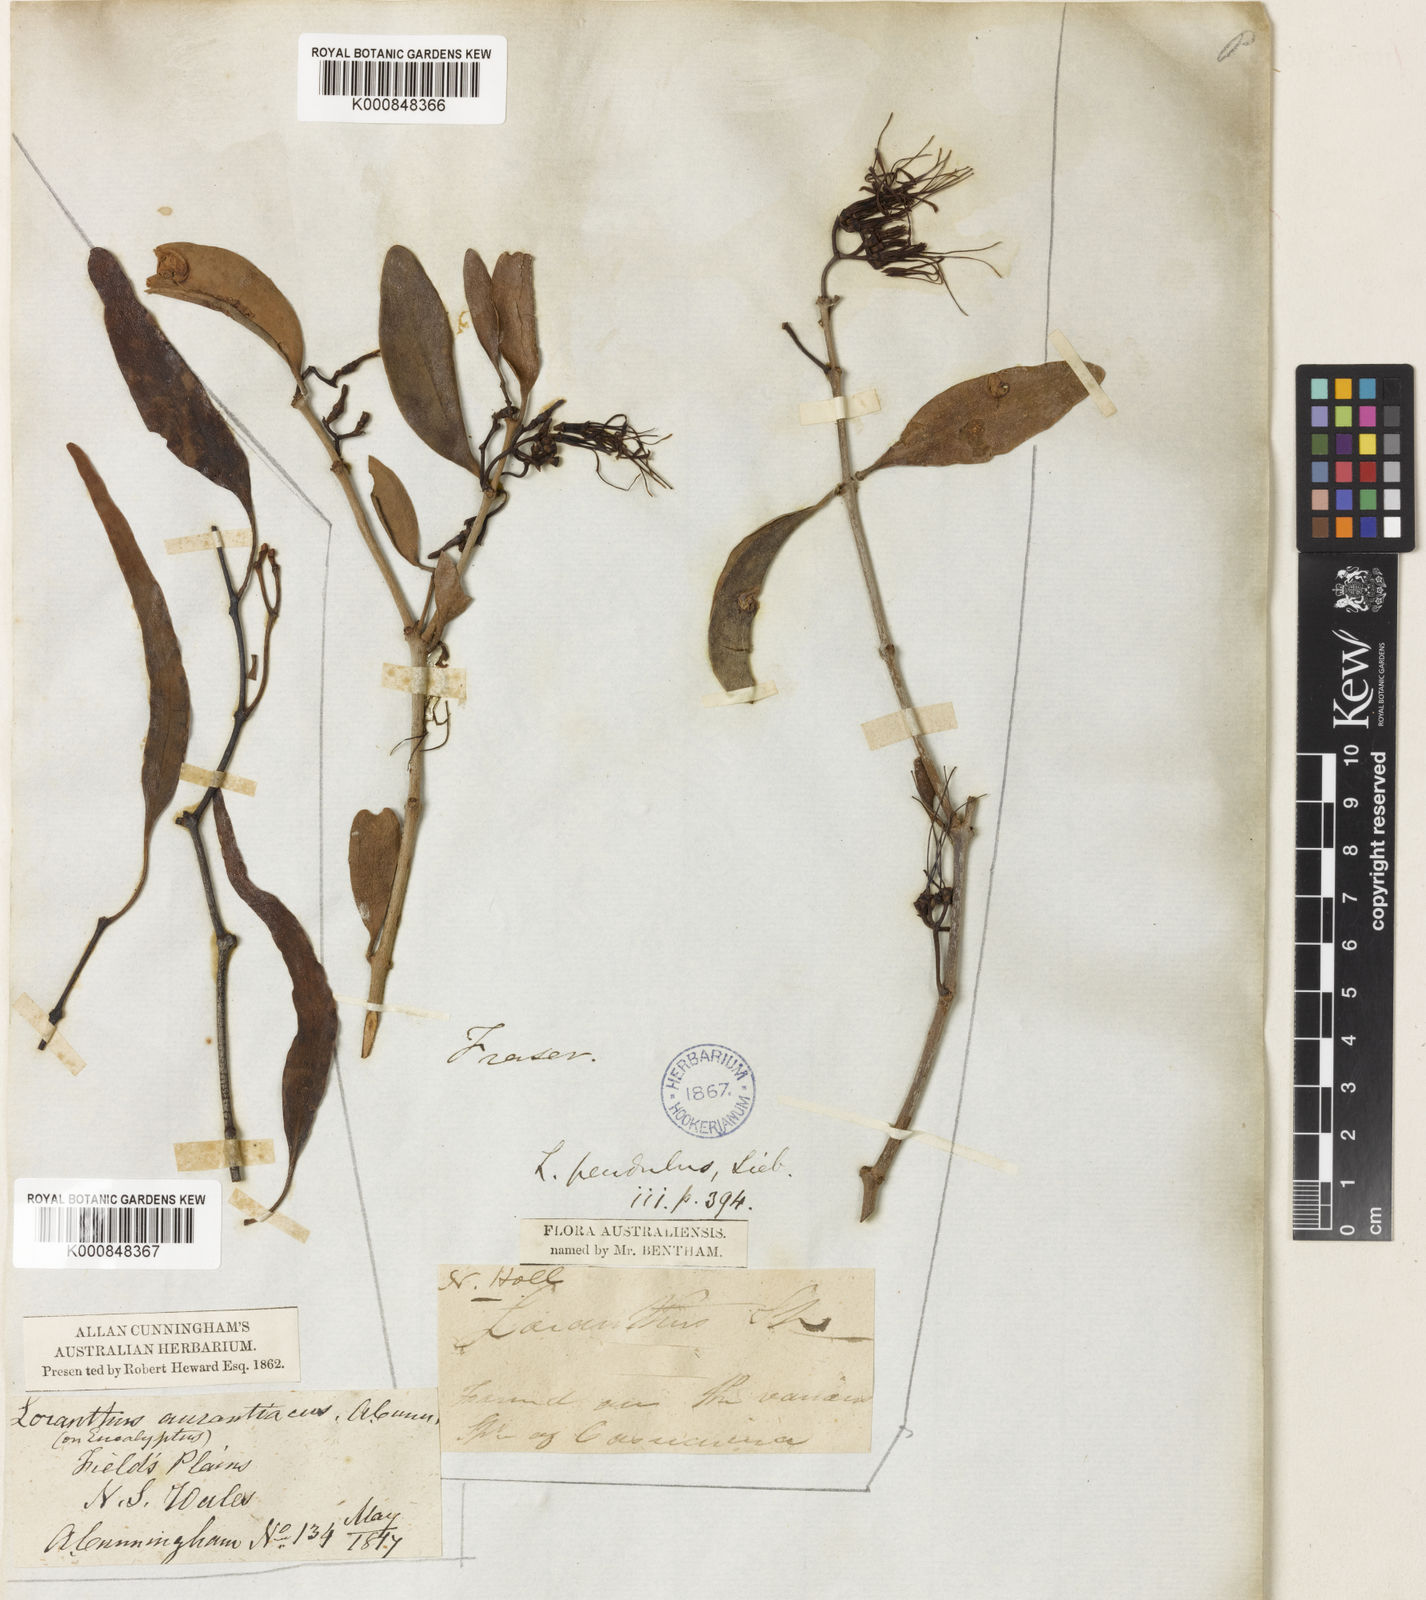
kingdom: Plantae
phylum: Tracheophyta
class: Magnoliopsida
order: Santalales
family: Loranthaceae
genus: Amyema
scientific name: Amyema miquelii
